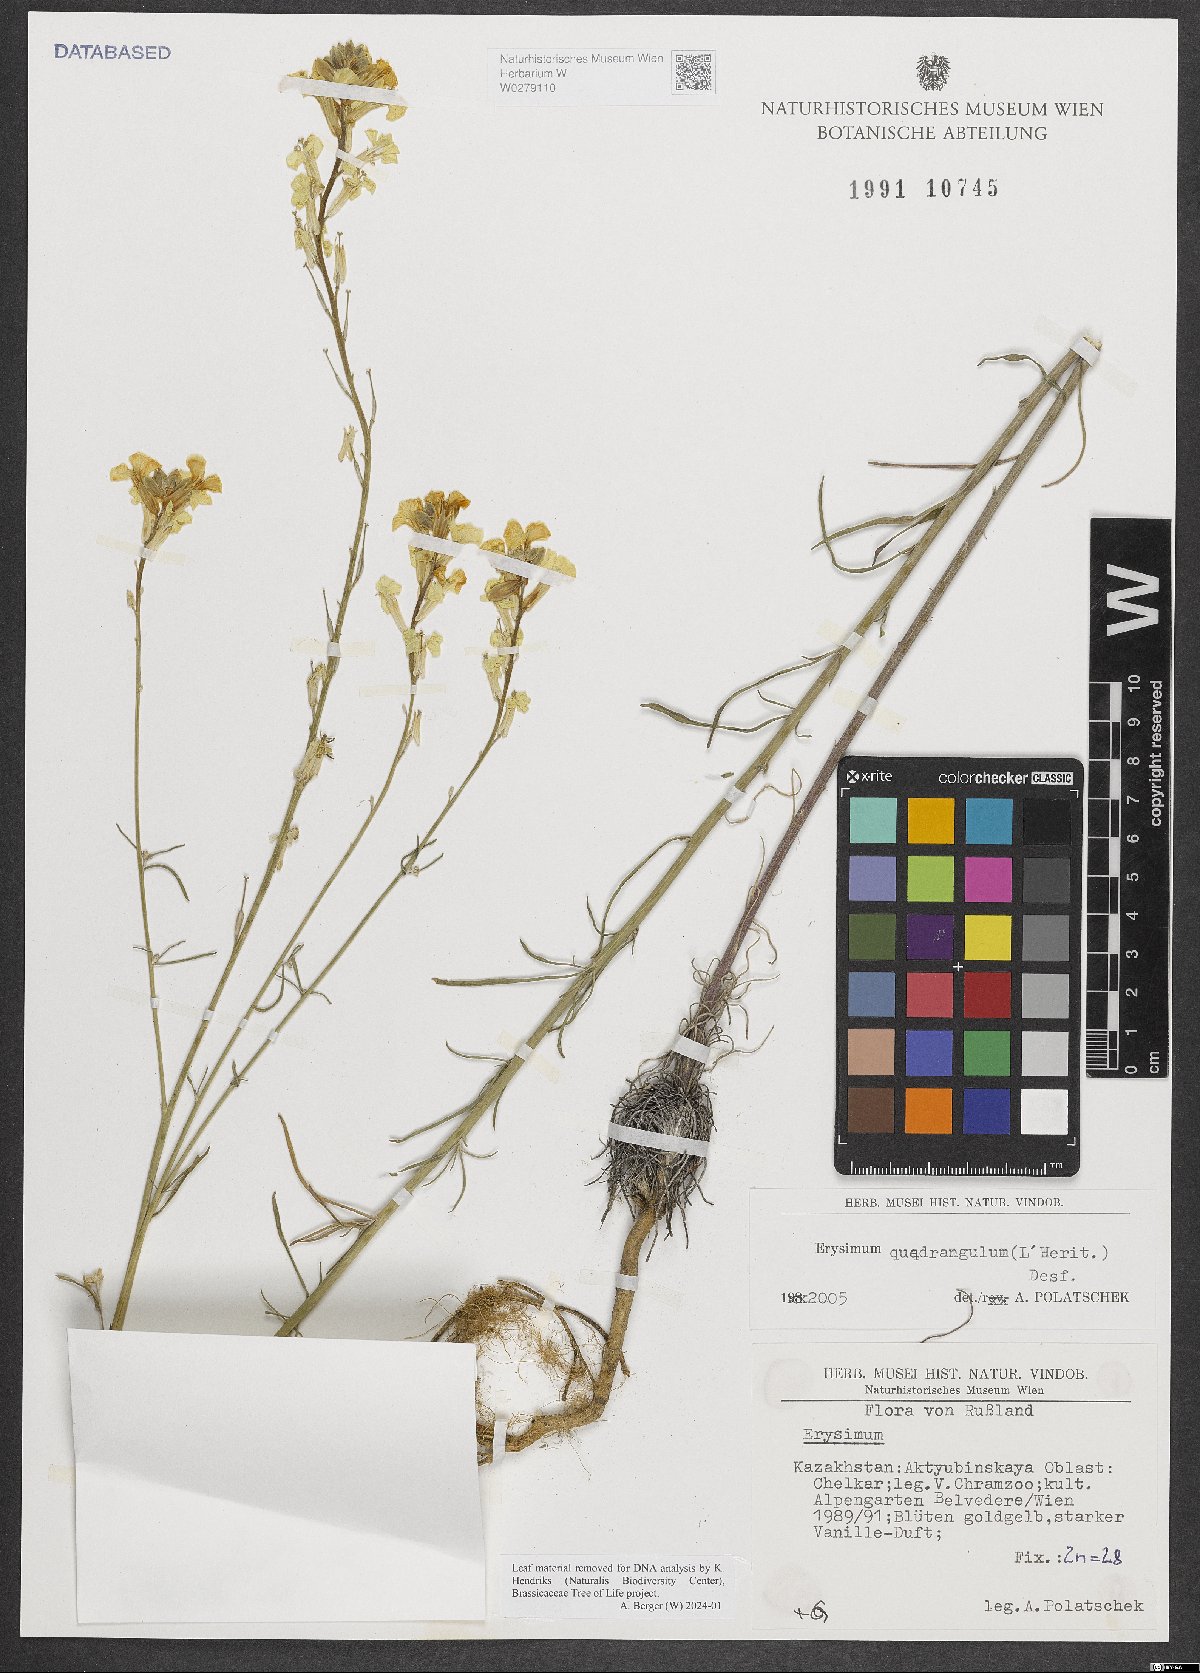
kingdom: Plantae
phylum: Tracheophyta
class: Magnoliopsida
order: Brassicales
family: Brassicaceae
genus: Erysimum
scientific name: Erysimum quadrangulum
